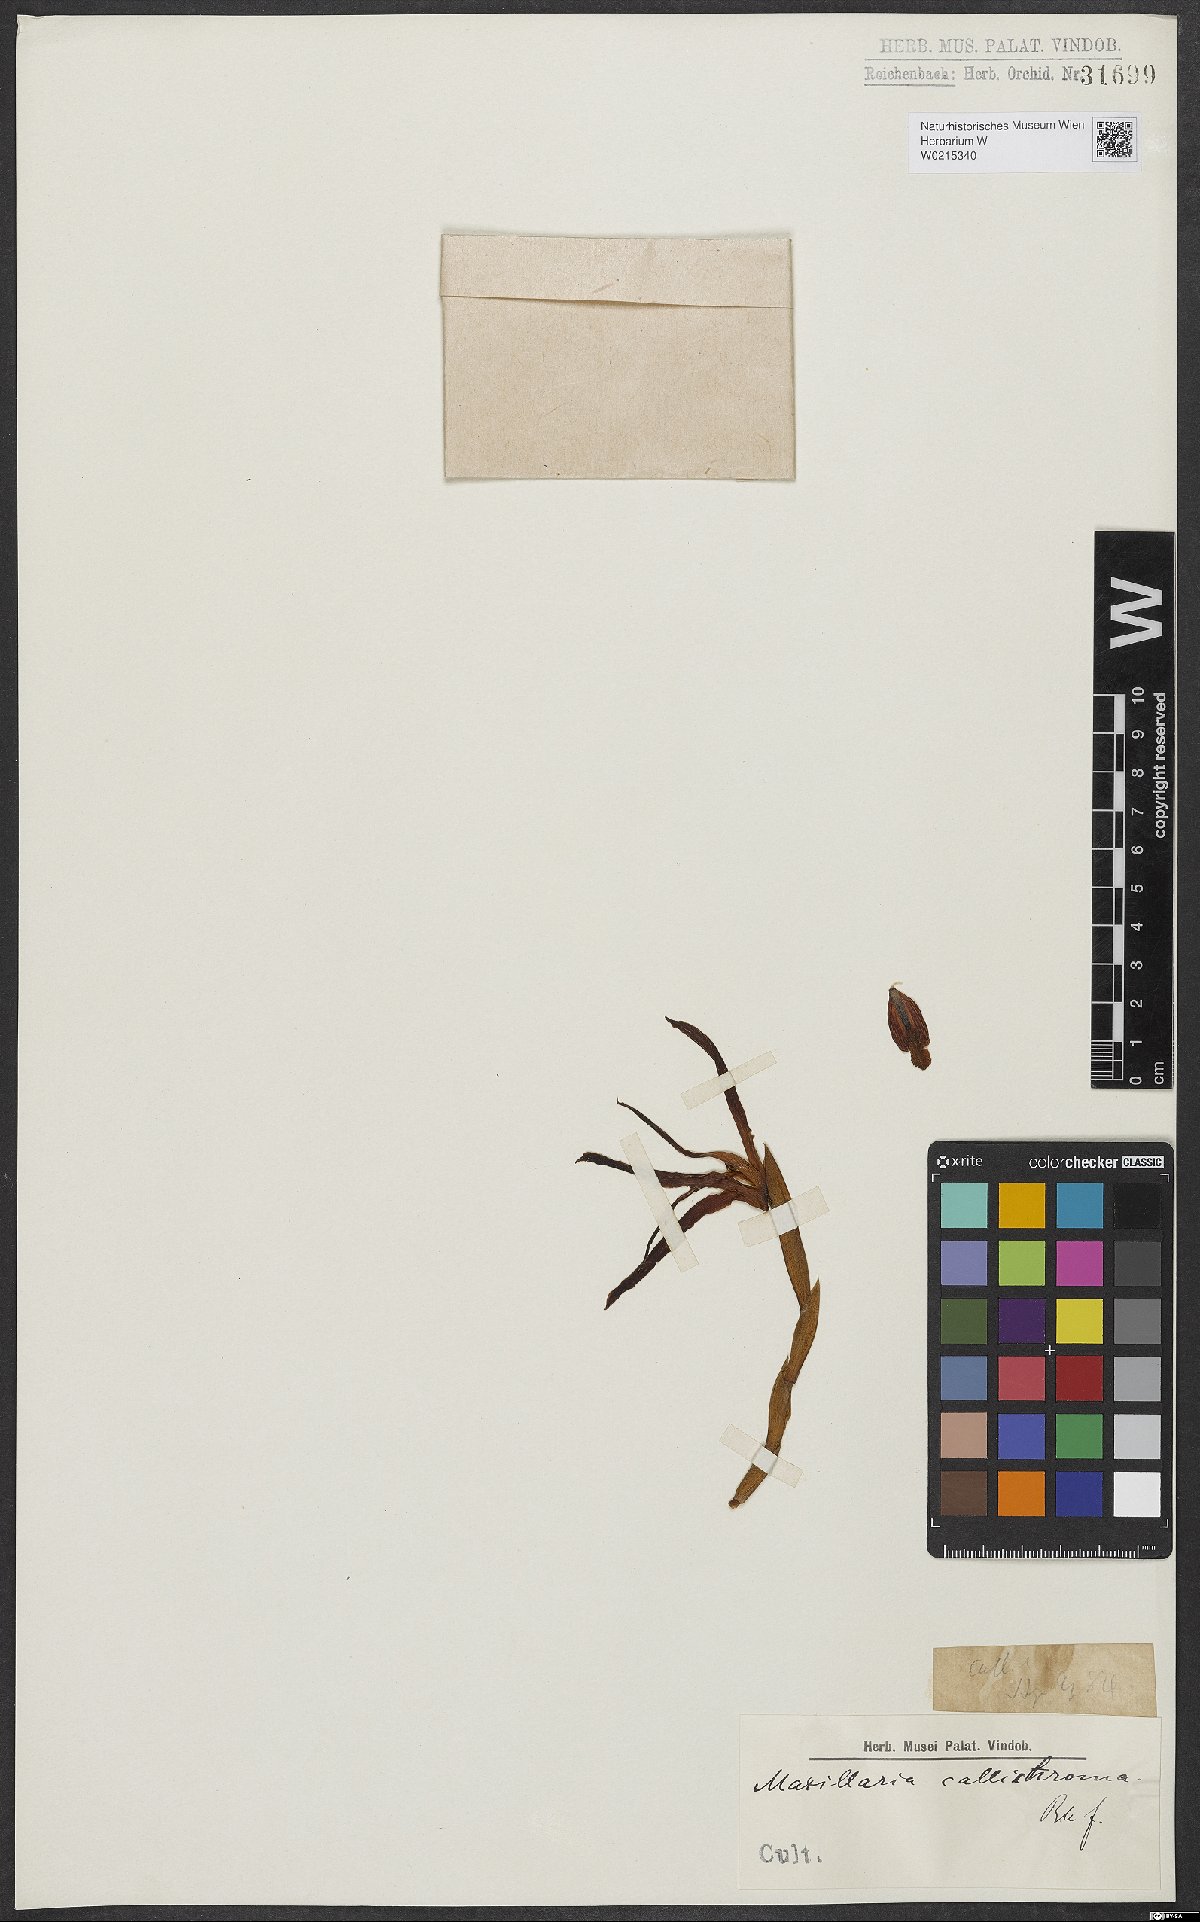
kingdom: Plantae
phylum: Tracheophyta
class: Liliopsida
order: Asparagales
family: Orchidaceae
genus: Maxillaria
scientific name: Maxillaria callichroma
